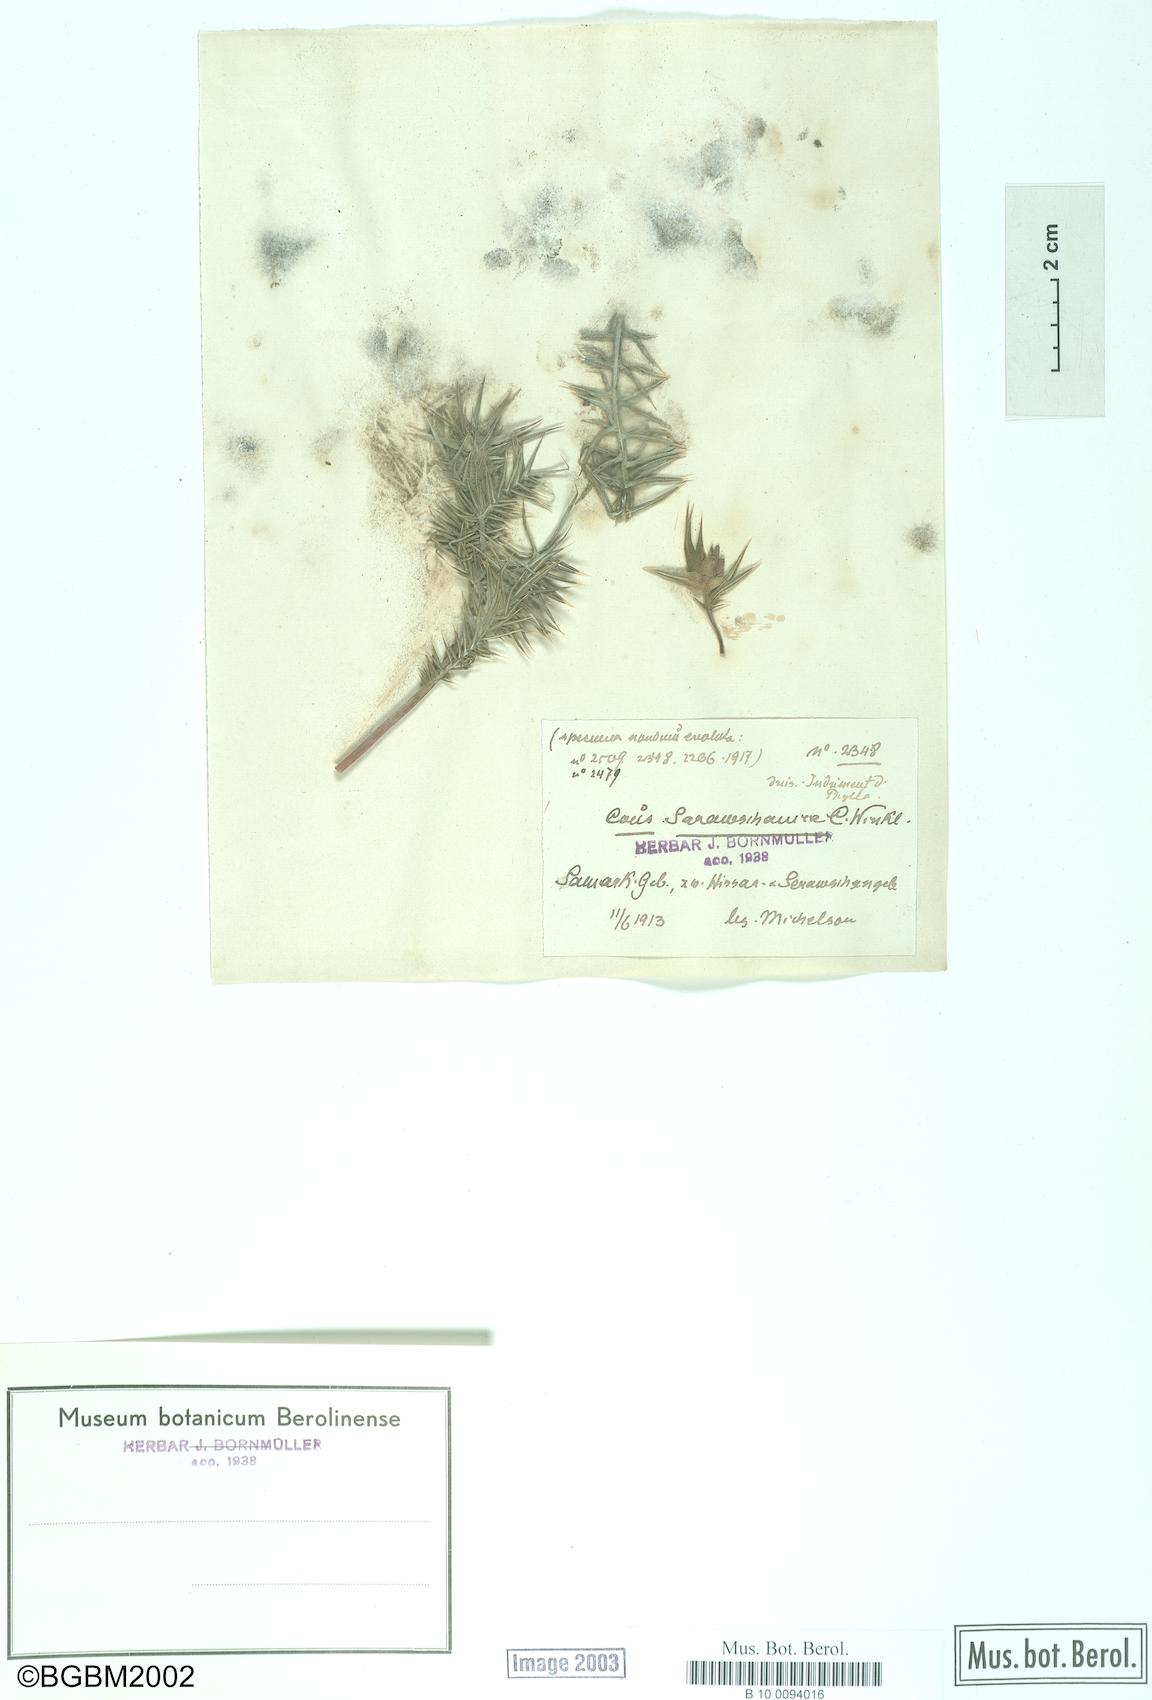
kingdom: Plantae
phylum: Tracheophyta
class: Magnoliopsida
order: Asterales
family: Asteraceae
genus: Cousinia
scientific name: Cousinia sarawschanica
